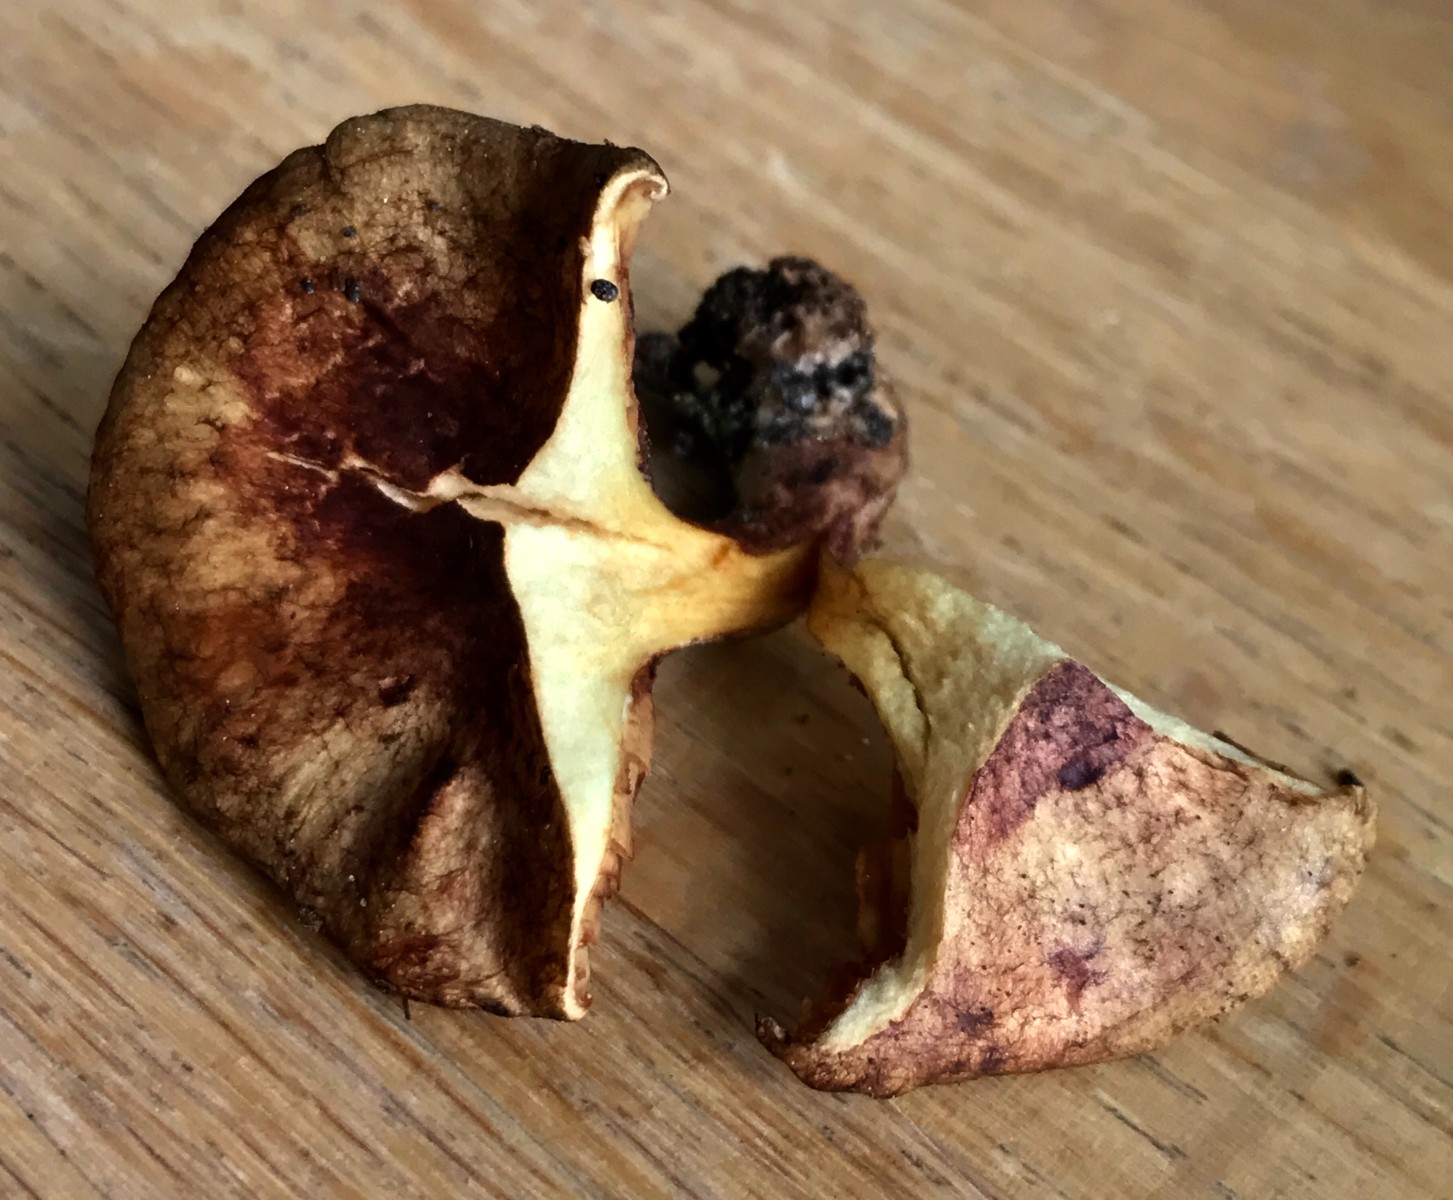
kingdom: Fungi
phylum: Basidiomycota
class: Agaricomycetes
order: Boletales
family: Paxillaceae
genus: Paxillus
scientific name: Paxillus rubicundulus
